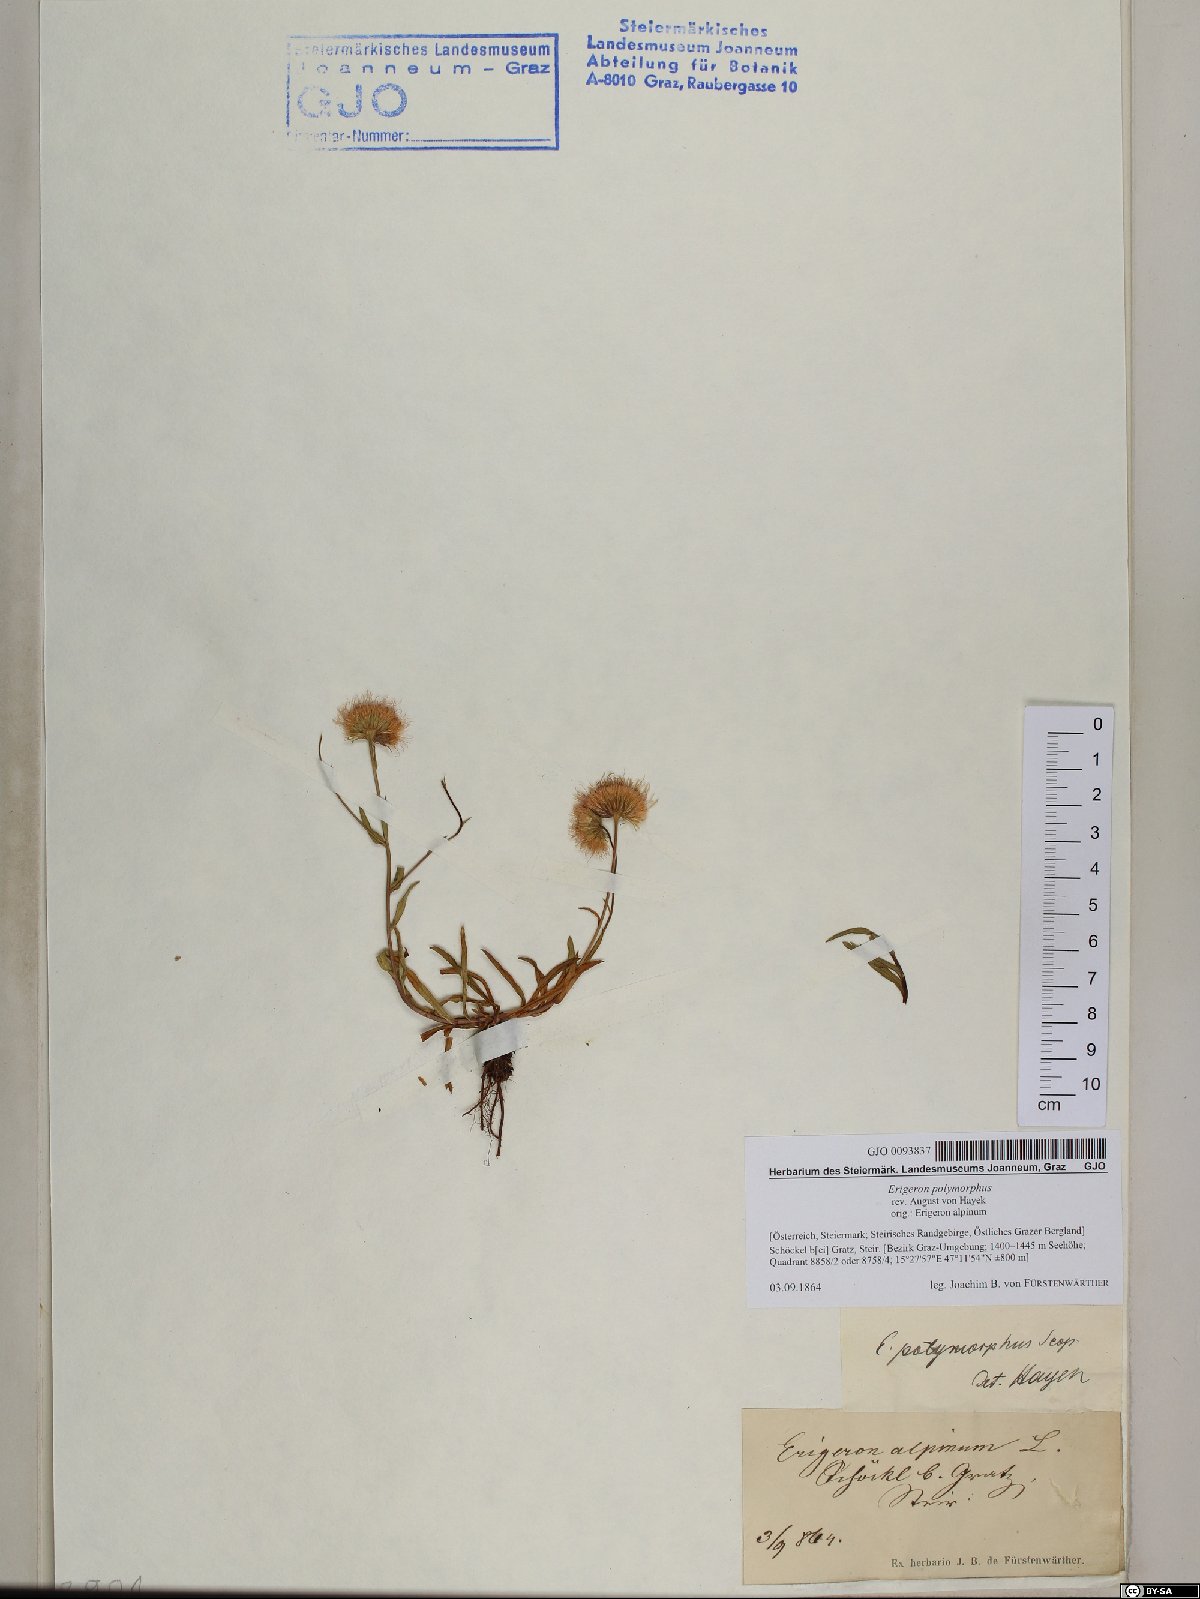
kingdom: Plantae
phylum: Tracheophyta
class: Magnoliopsida
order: Asterales
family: Asteraceae
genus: Erigeron
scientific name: Erigeron alpinus
